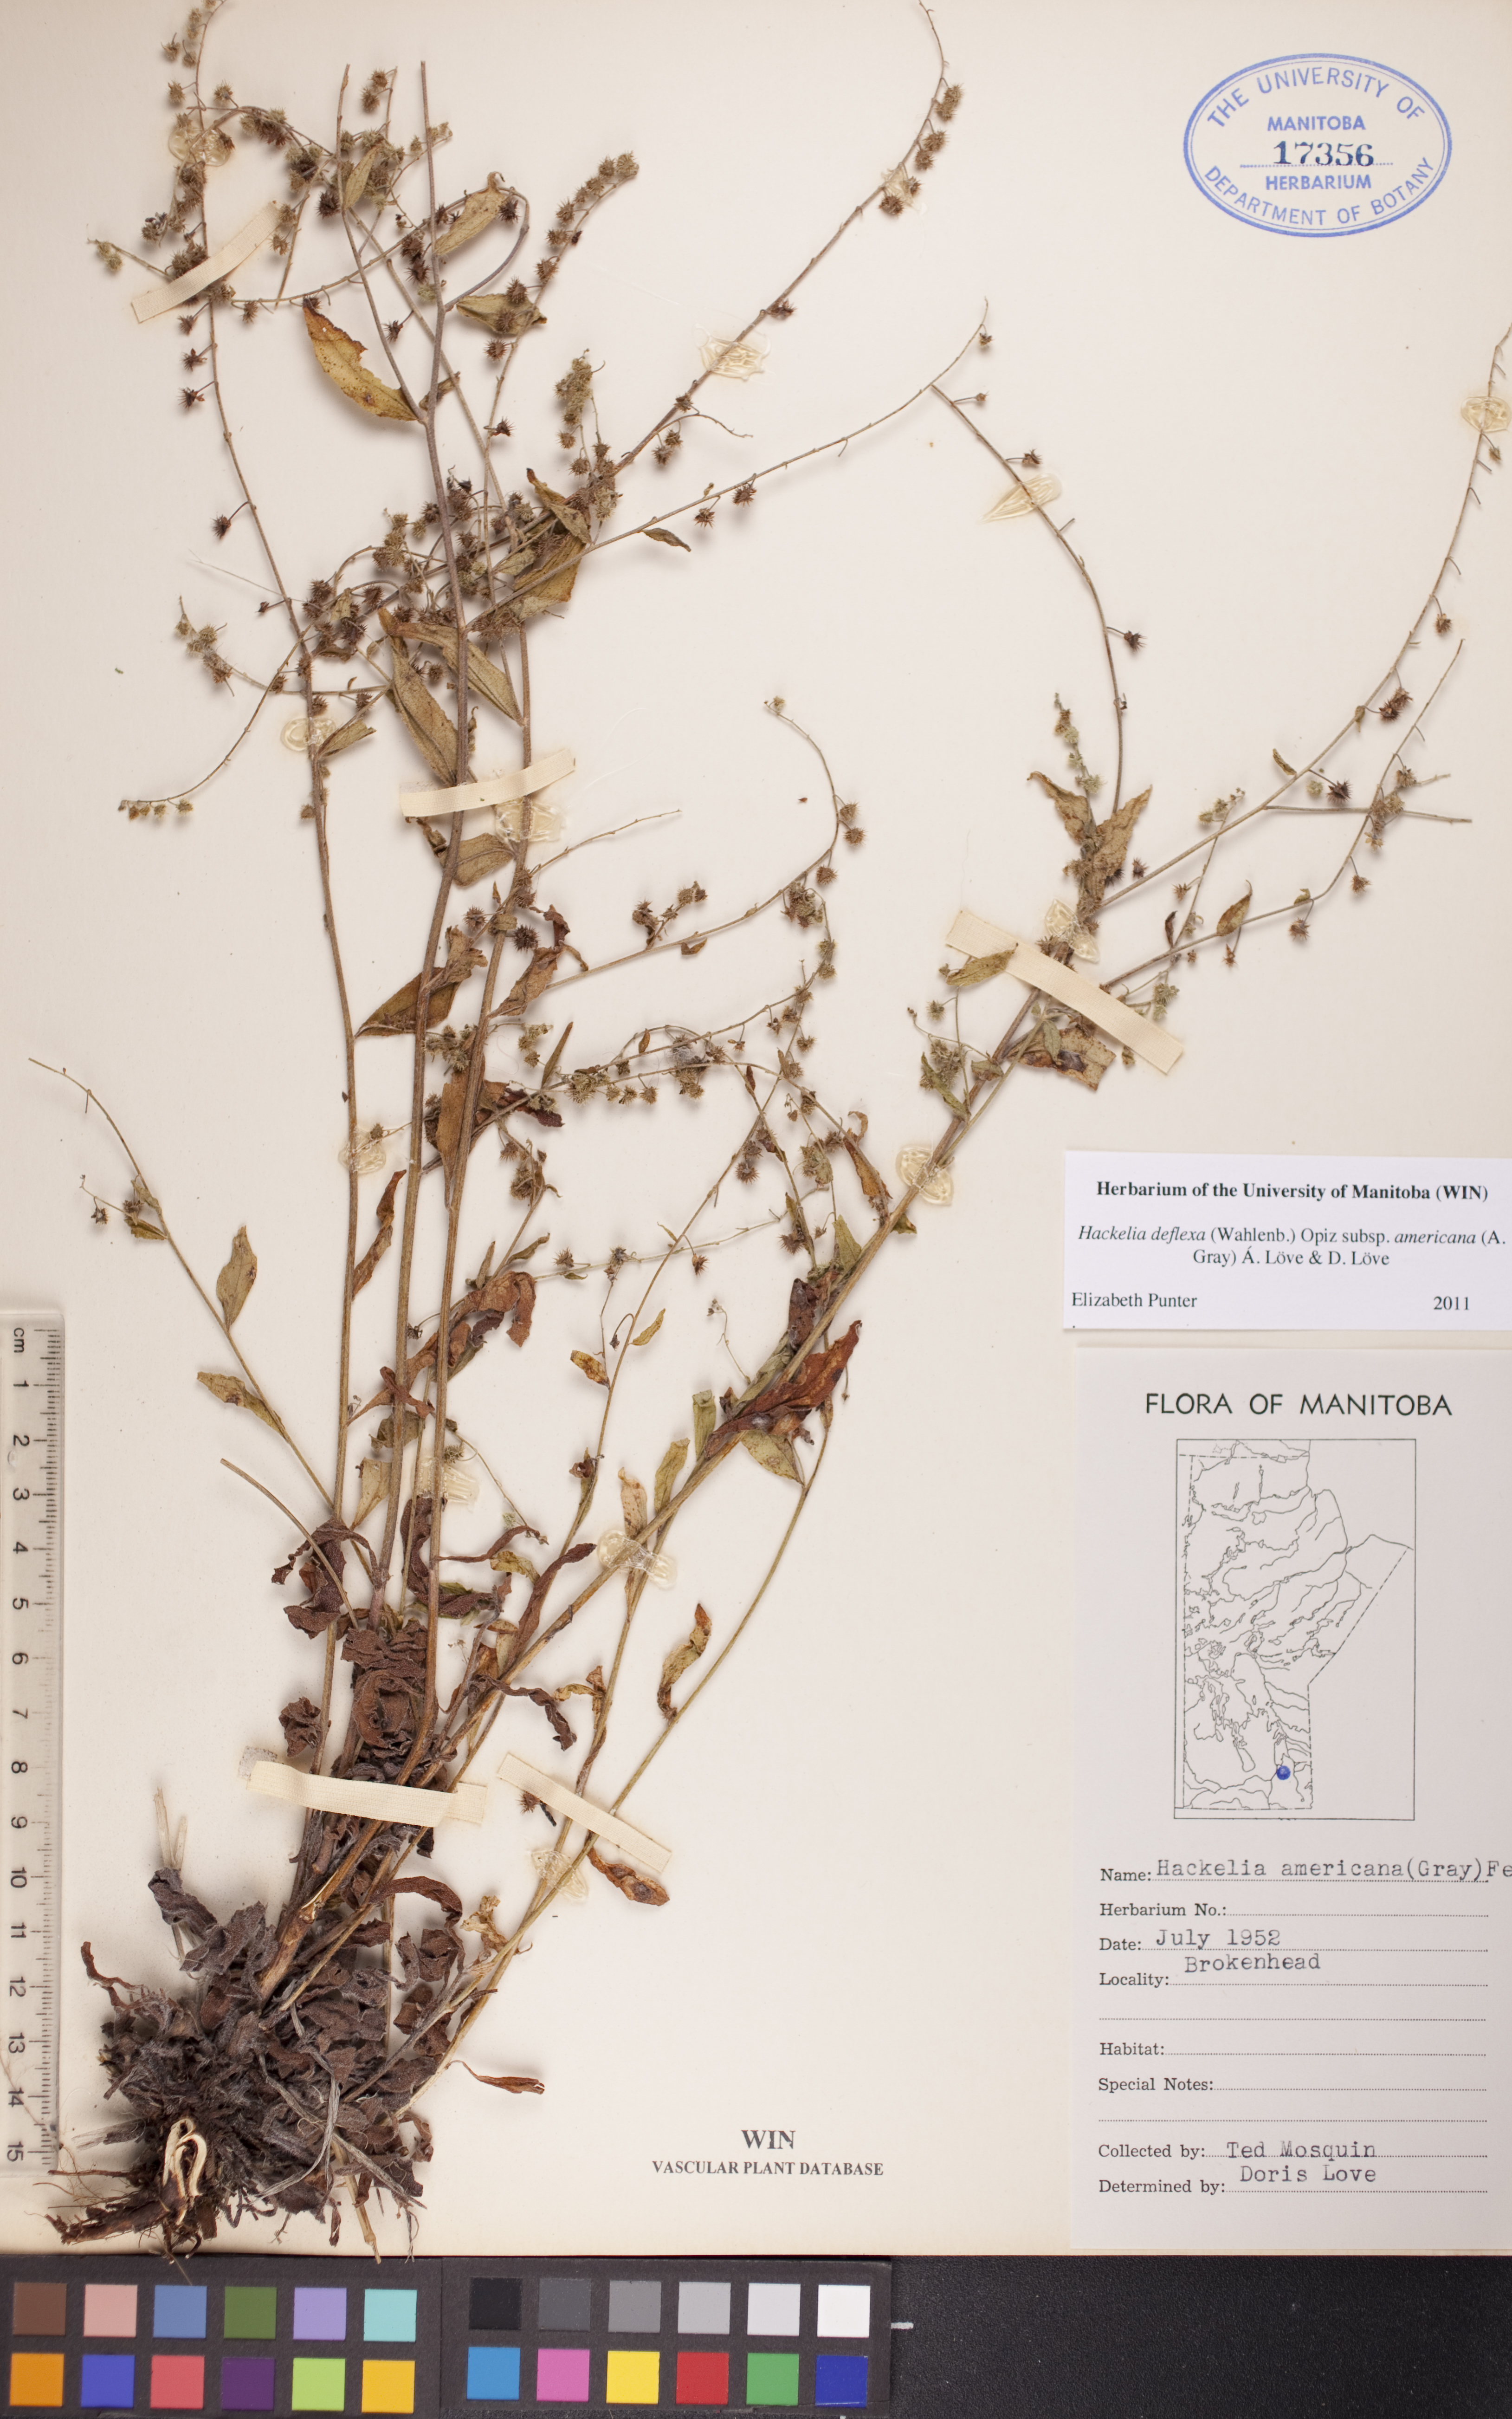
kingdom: Plantae
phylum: Tracheophyta
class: Magnoliopsida
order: Boraginales
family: Boraginaceae
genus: Hackelia
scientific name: Hackelia deflexa
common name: Nodding stickseed
